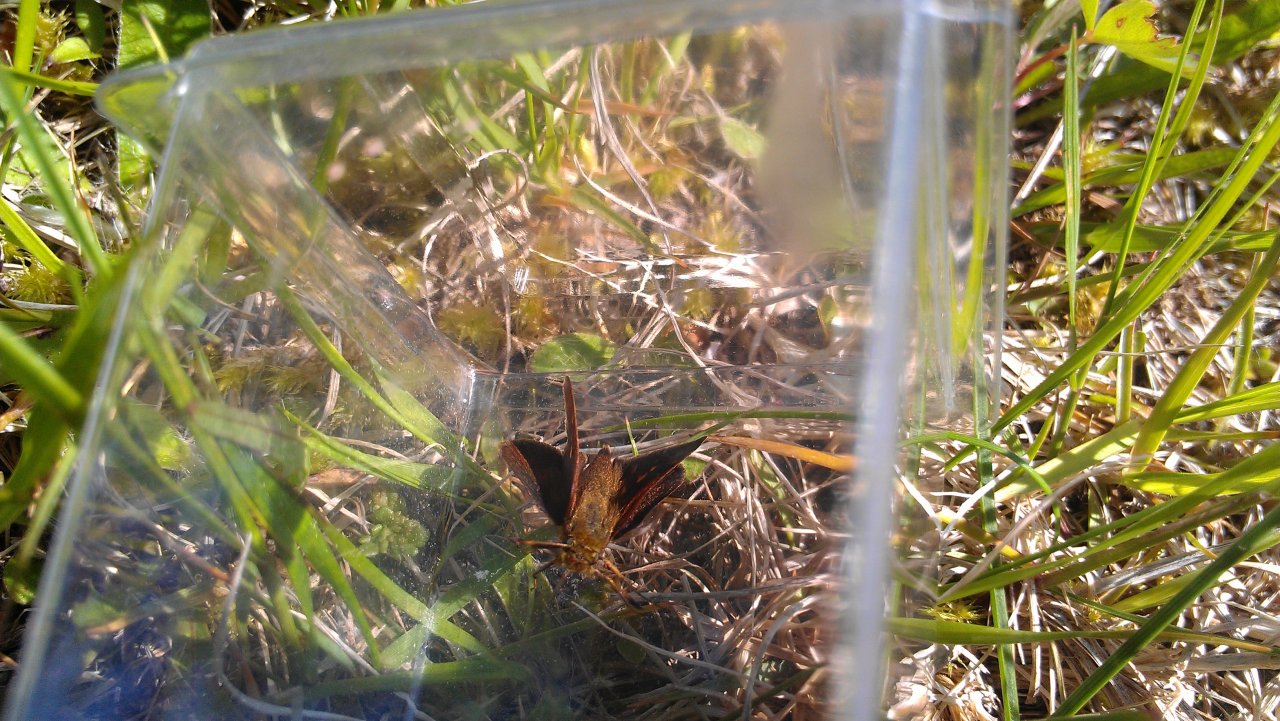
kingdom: Animalia
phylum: Arthropoda
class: Insecta
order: Lepidoptera
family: Hesperiidae
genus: Polites
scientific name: Polites themistocles
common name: Tawny-edged Skipper
